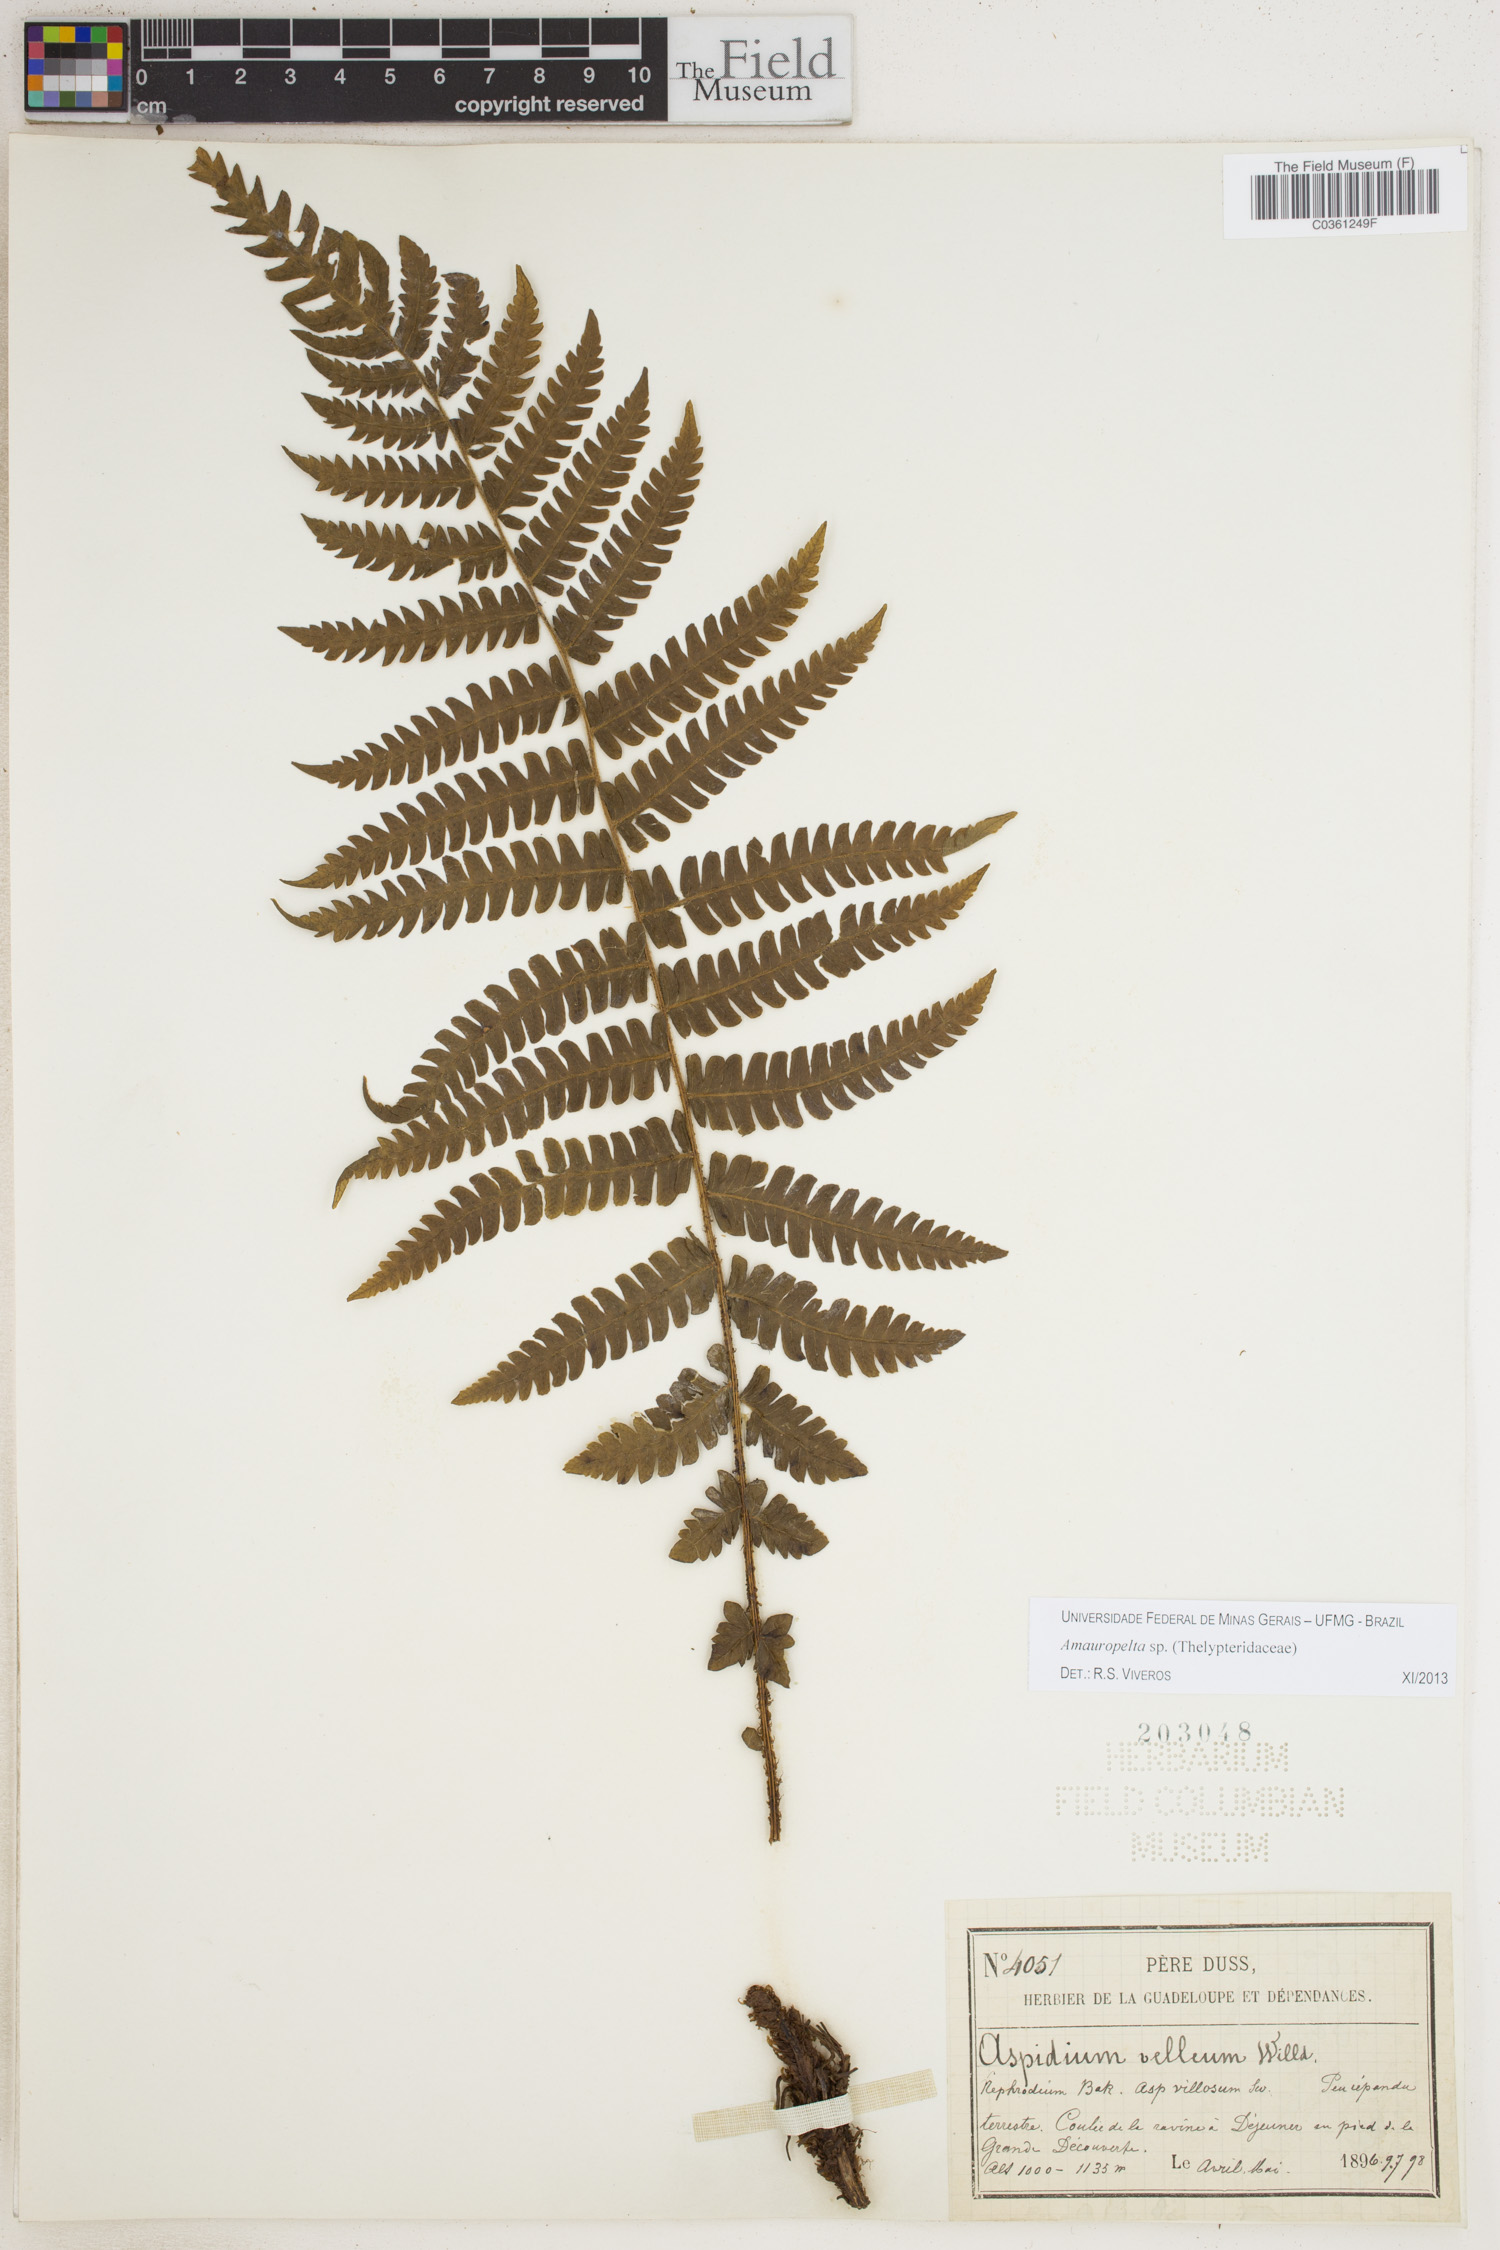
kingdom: Plantae
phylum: Tracheophyta
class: Polypodiopsida
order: Polypodiales
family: Thelypteridaceae
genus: Amauropelta
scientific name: Amauropelta
